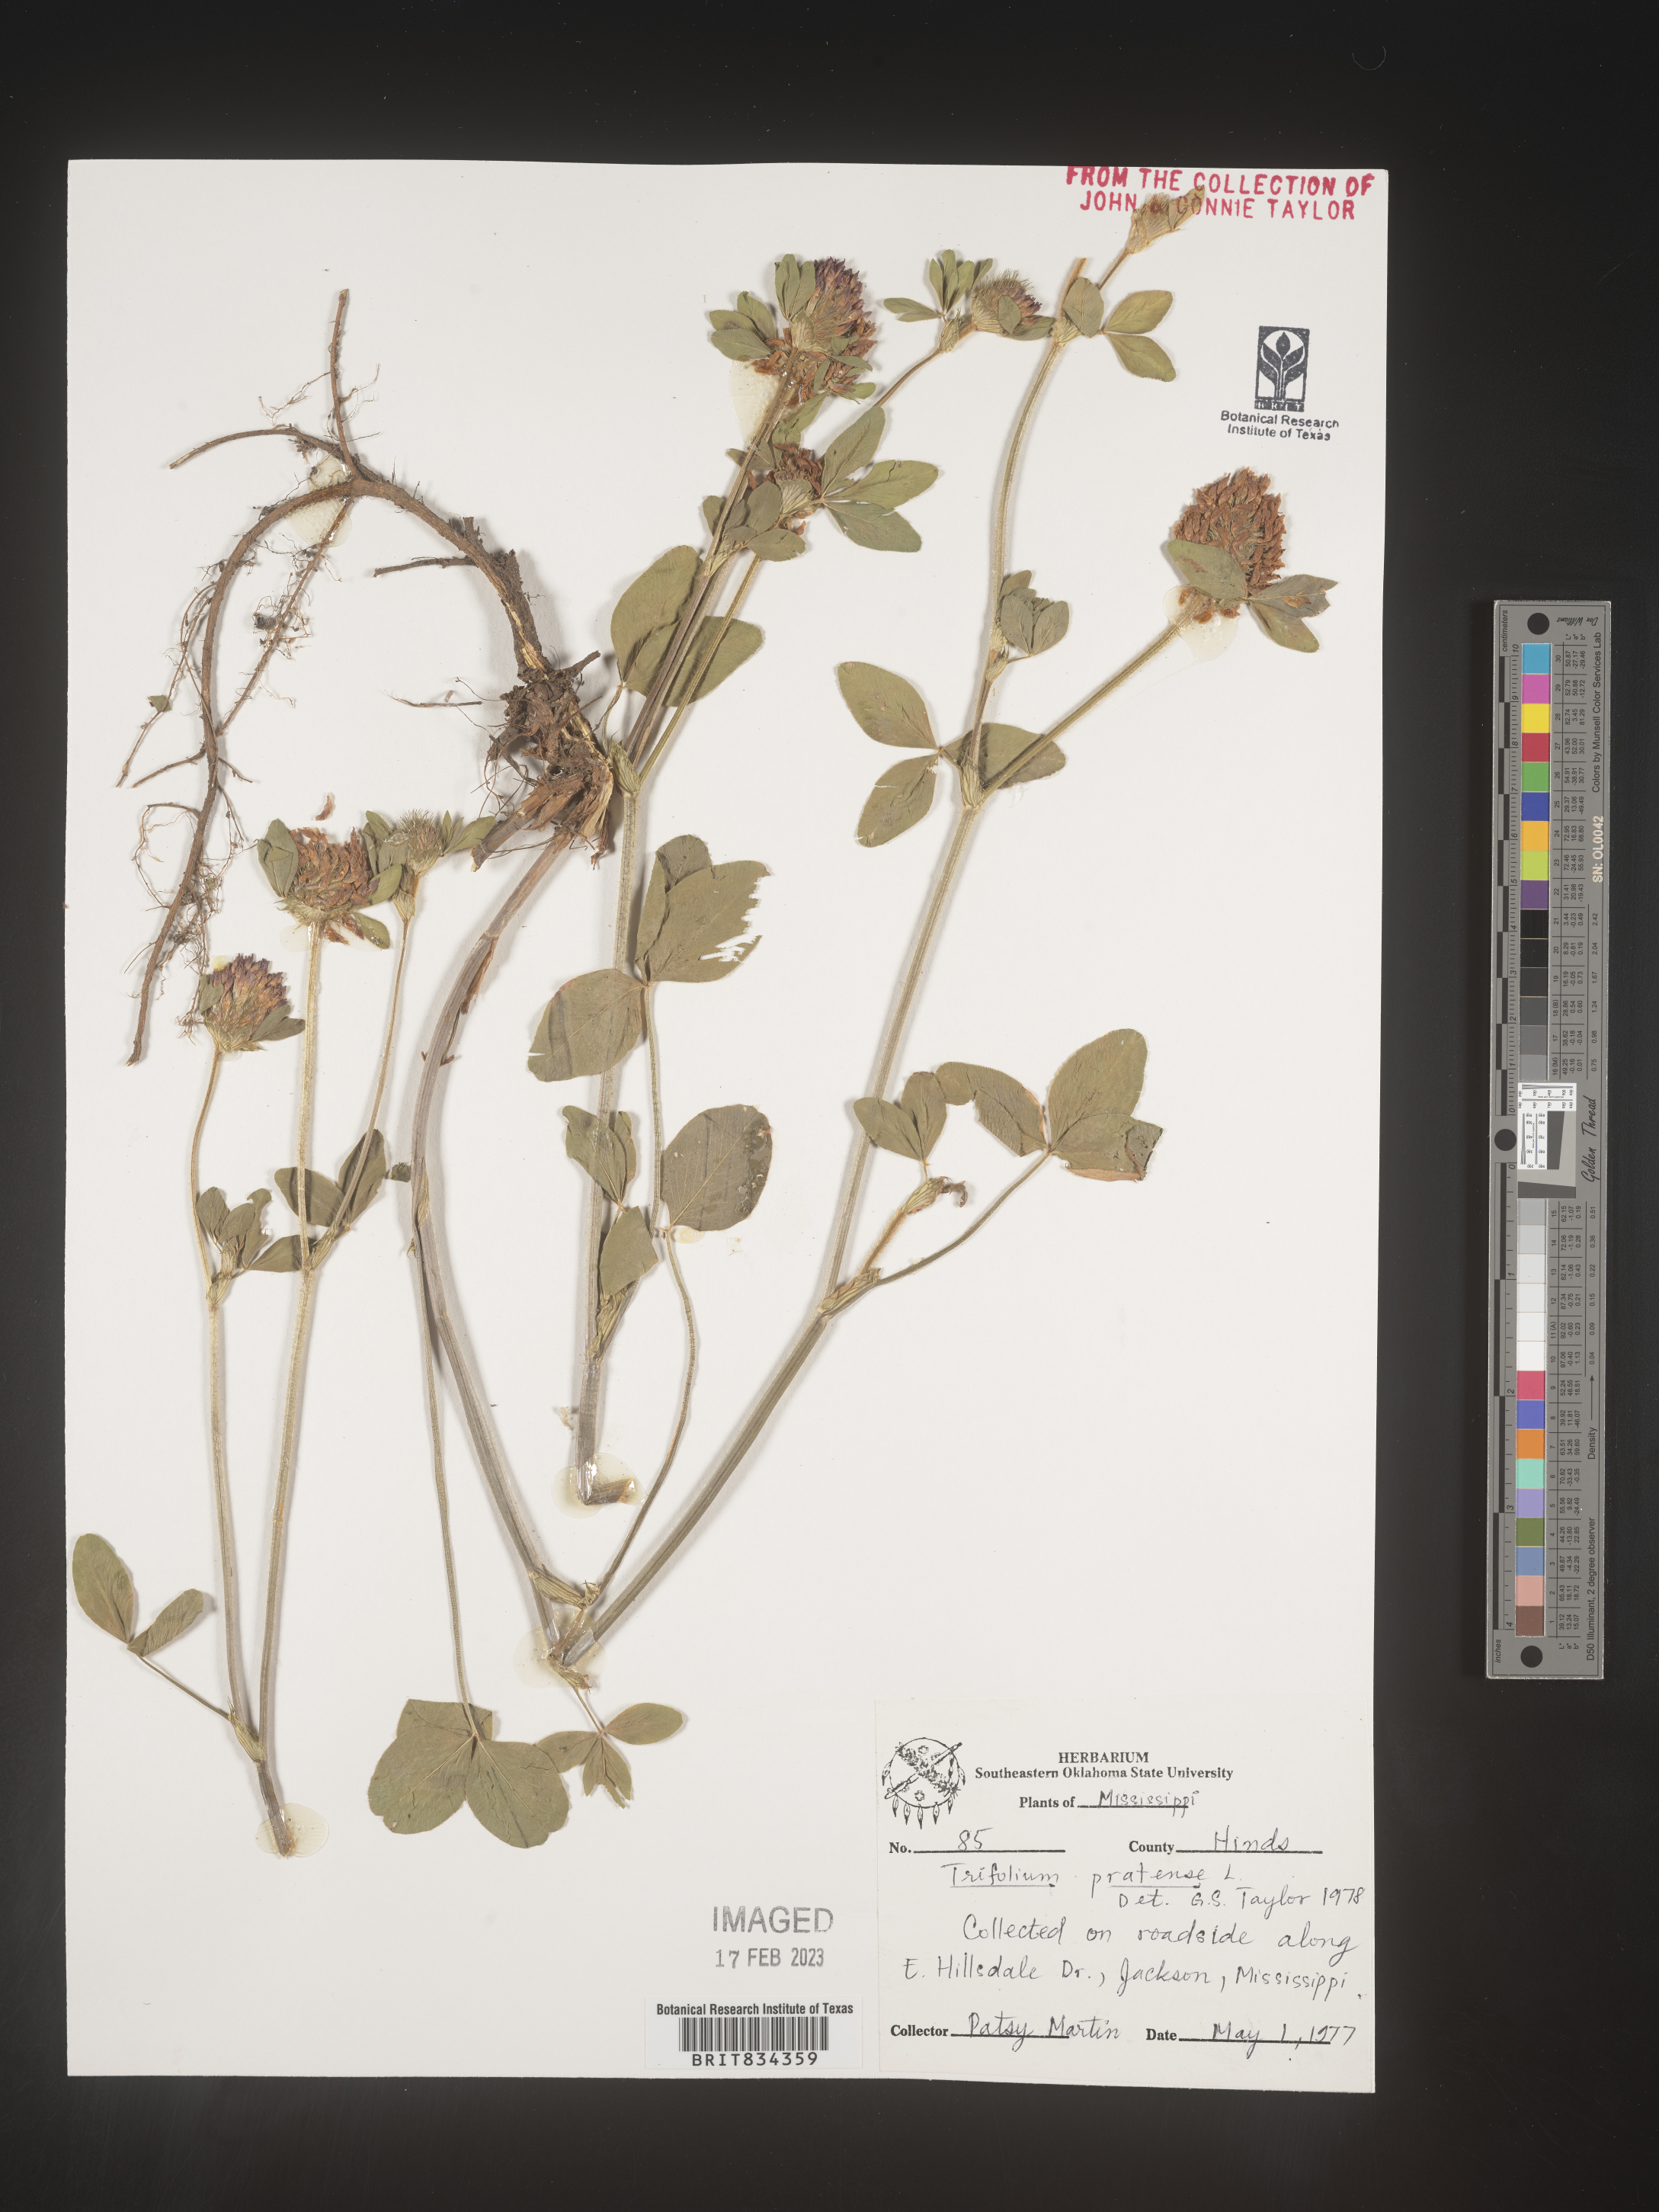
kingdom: Plantae
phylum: Tracheophyta
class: Magnoliopsida
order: Fabales
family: Fabaceae
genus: Trifolium
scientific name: Trifolium pratense
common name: Red clover
